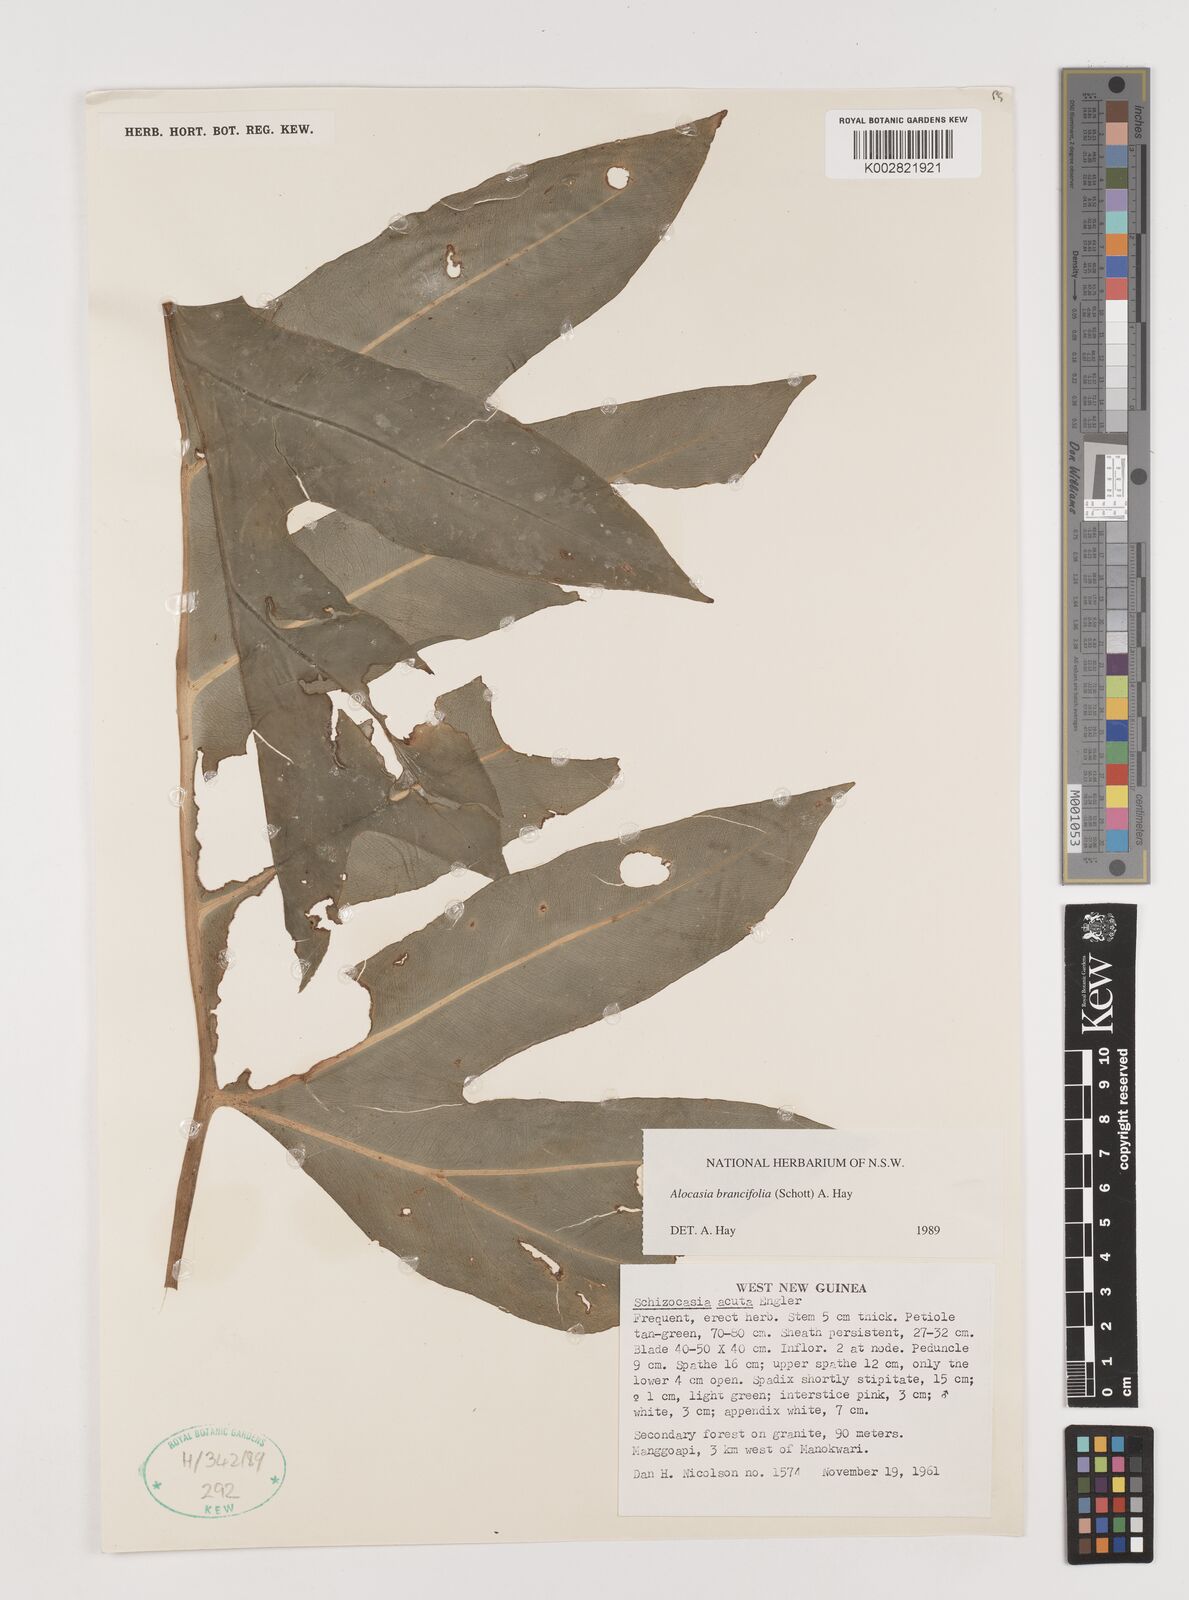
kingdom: Plantae
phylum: Tracheophyta
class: Liliopsida
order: Alismatales
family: Araceae
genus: Alocasia
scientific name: Alocasia brancifolia
